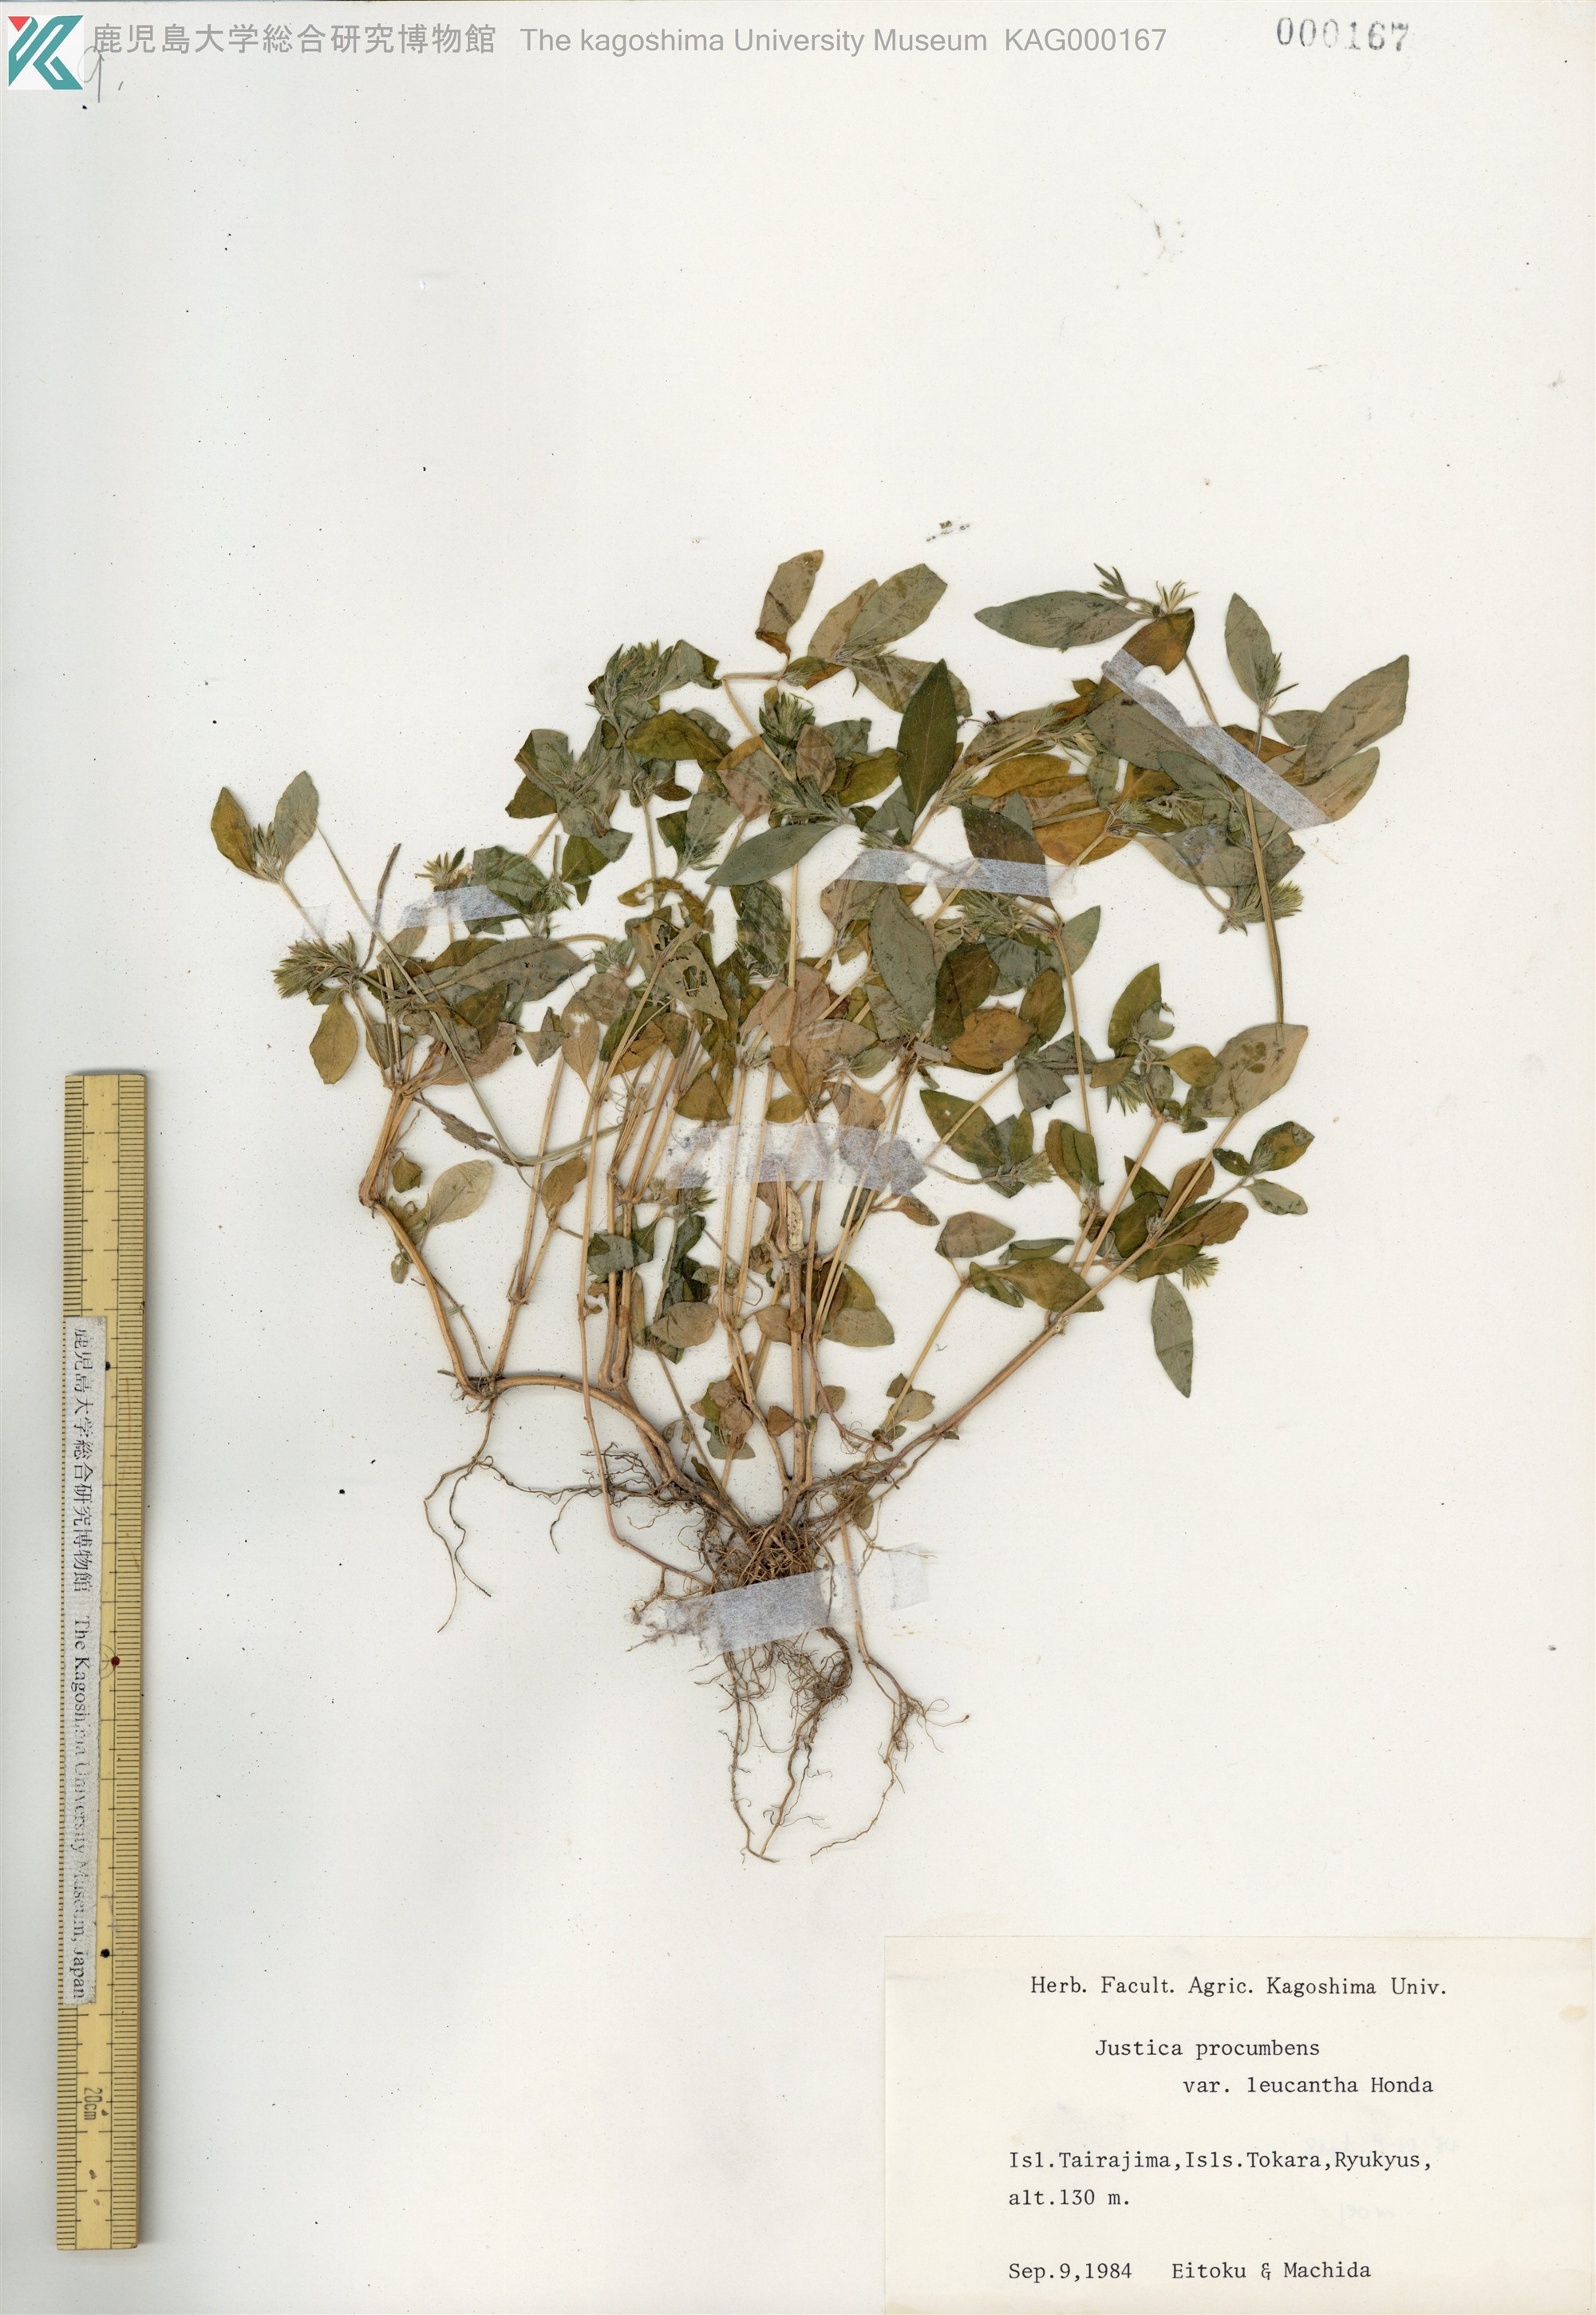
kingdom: Plantae
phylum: Tracheophyta
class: Magnoliopsida
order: Lamiales
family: Acanthaceae
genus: Rostellularia
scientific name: Rostellularia procumbens
